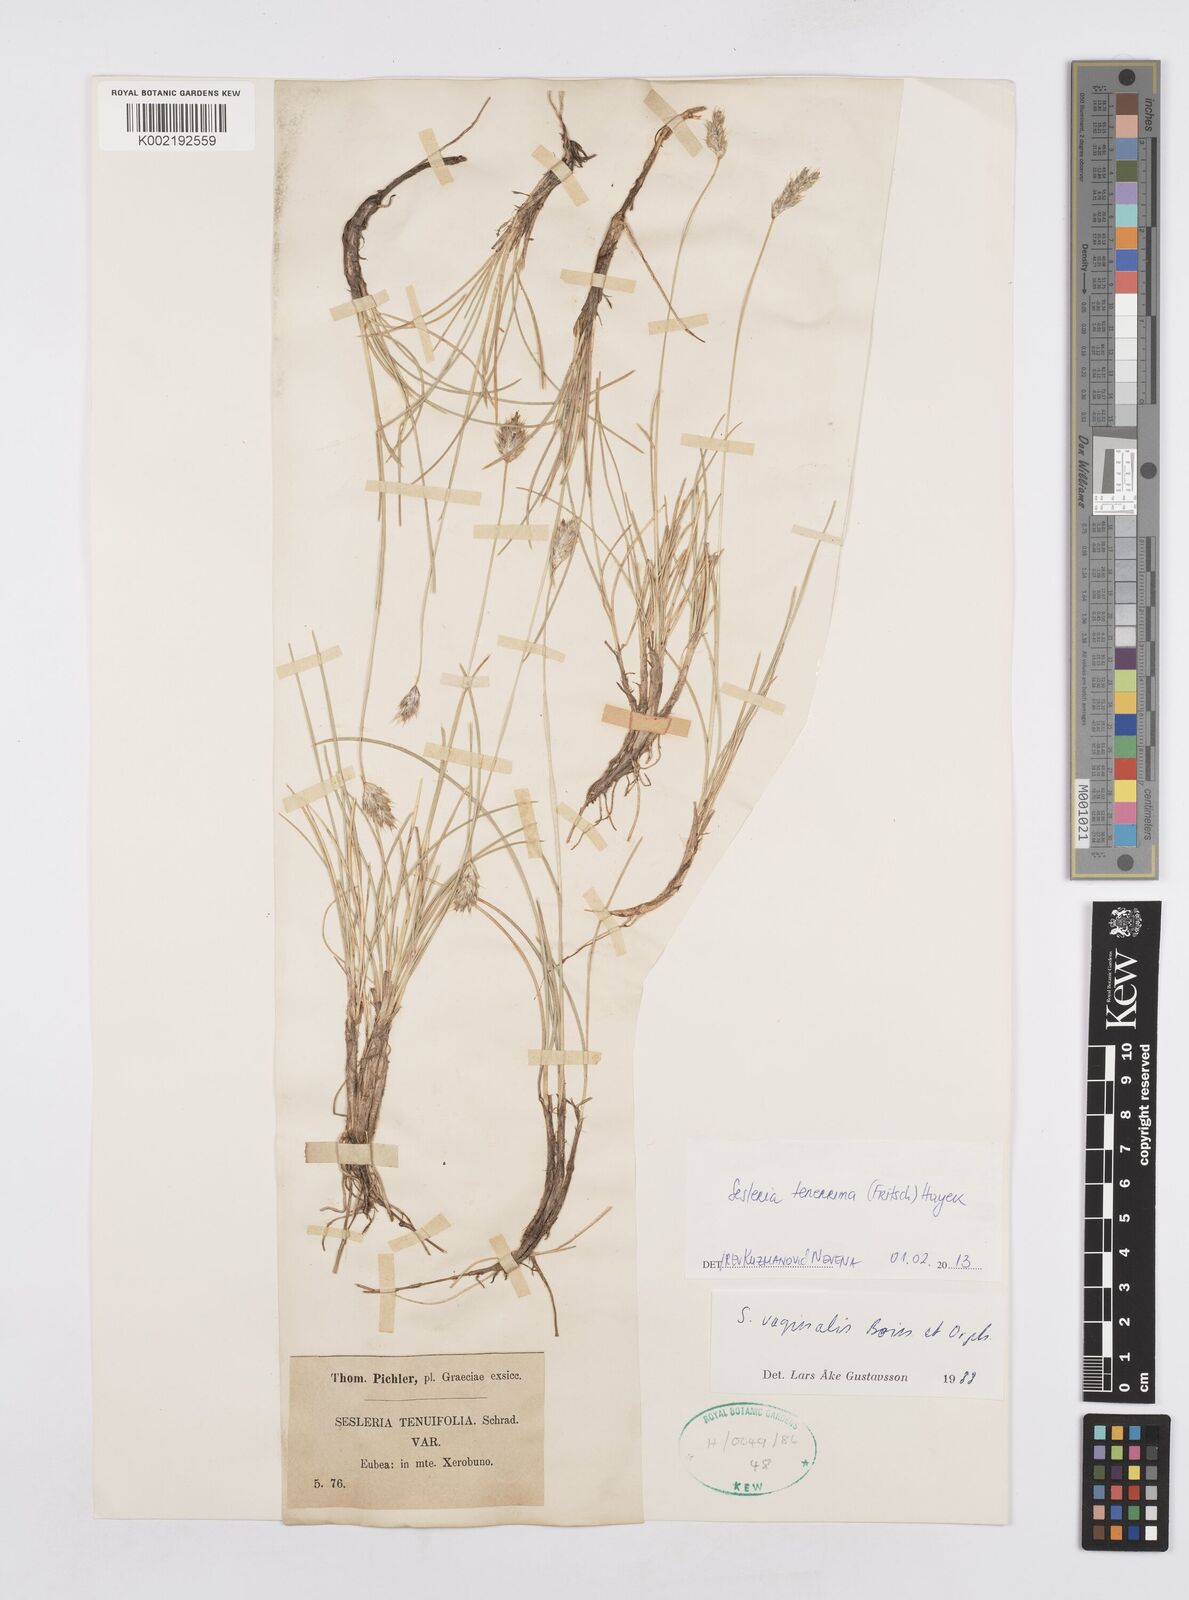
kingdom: Plantae
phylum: Tracheophyta
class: Liliopsida
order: Poales
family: Poaceae
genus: Sesleria
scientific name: Sesleria tenerrima
